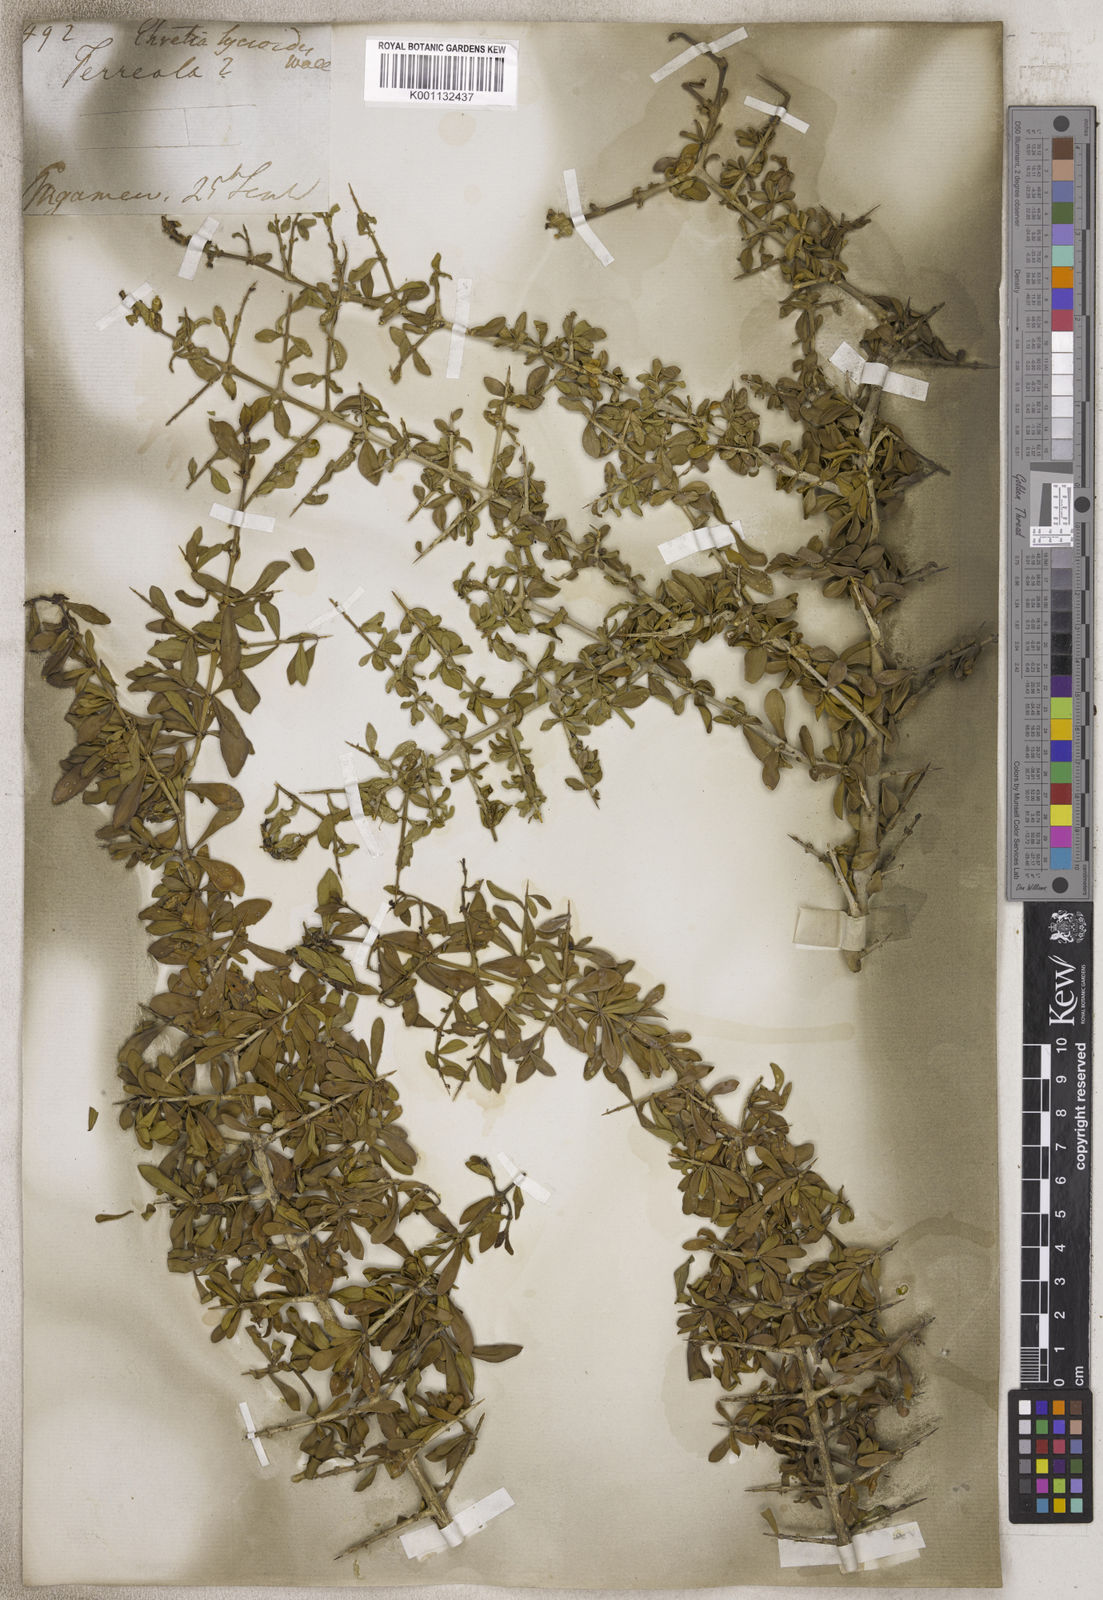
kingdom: Plantae
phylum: Tracheophyta
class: Magnoliopsida
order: Boraginales
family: Ehretiaceae
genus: Ehretia
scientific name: Ehretia
